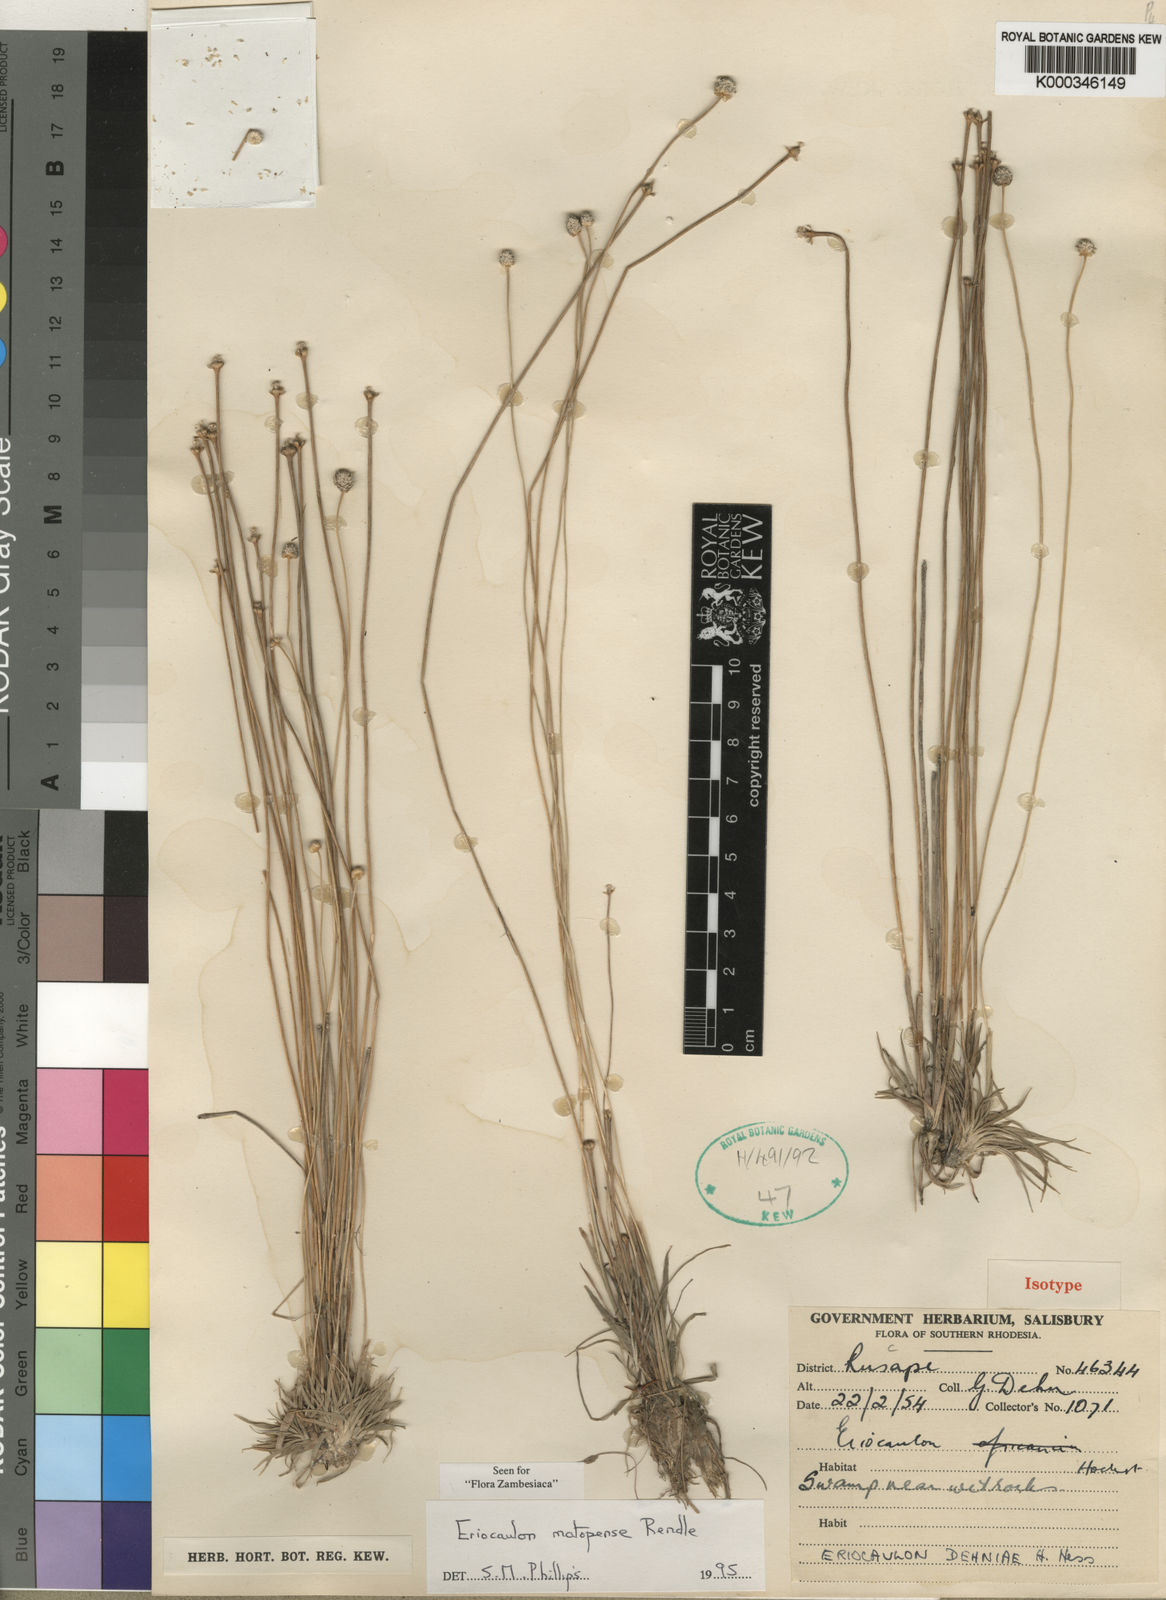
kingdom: Plantae
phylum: Tracheophyta
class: Liliopsida
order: Poales
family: Eriocaulaceae
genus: Eriocaulon
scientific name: Eriocaulon matopense
